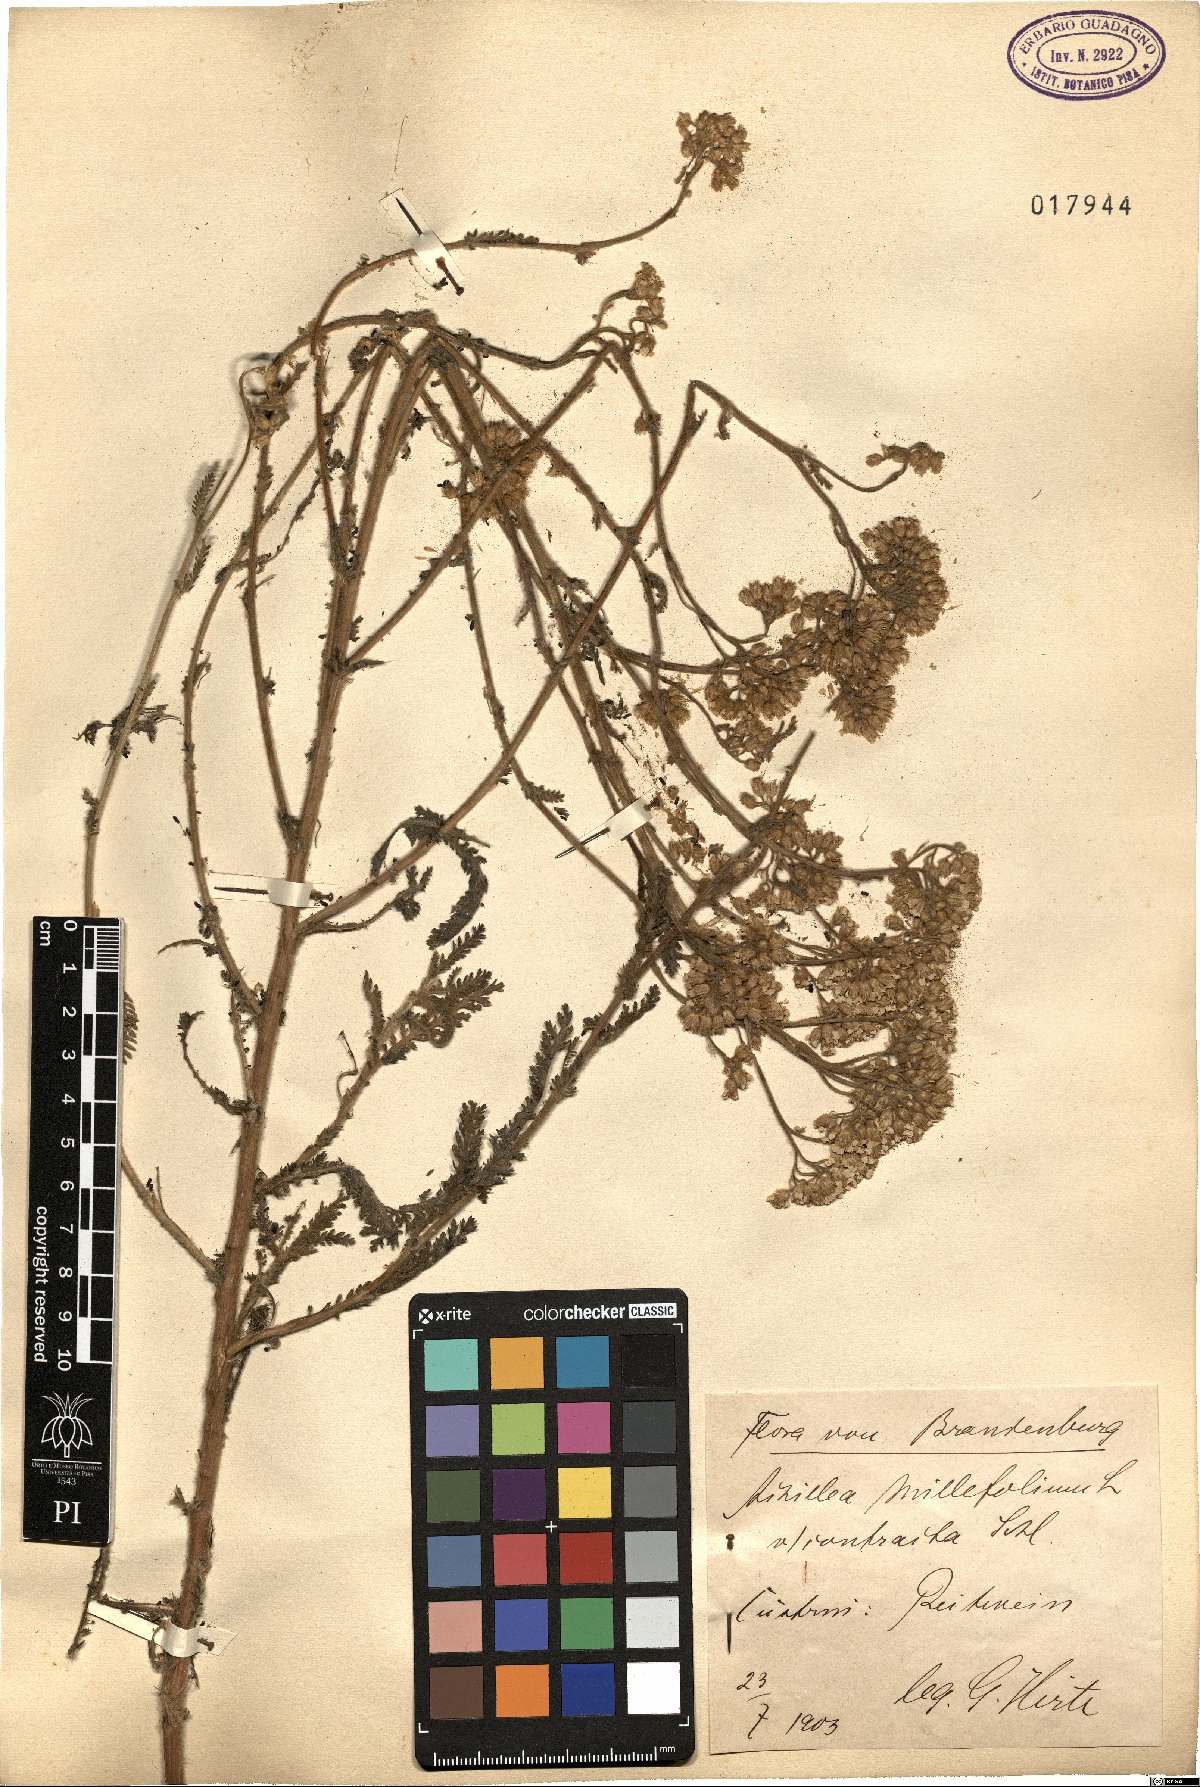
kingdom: Plantae
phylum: Tracheophyta
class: Magnoliopsida
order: Asterales
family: Asteraceae
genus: Achillea
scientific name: Achillea millefolium
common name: Yarrow
